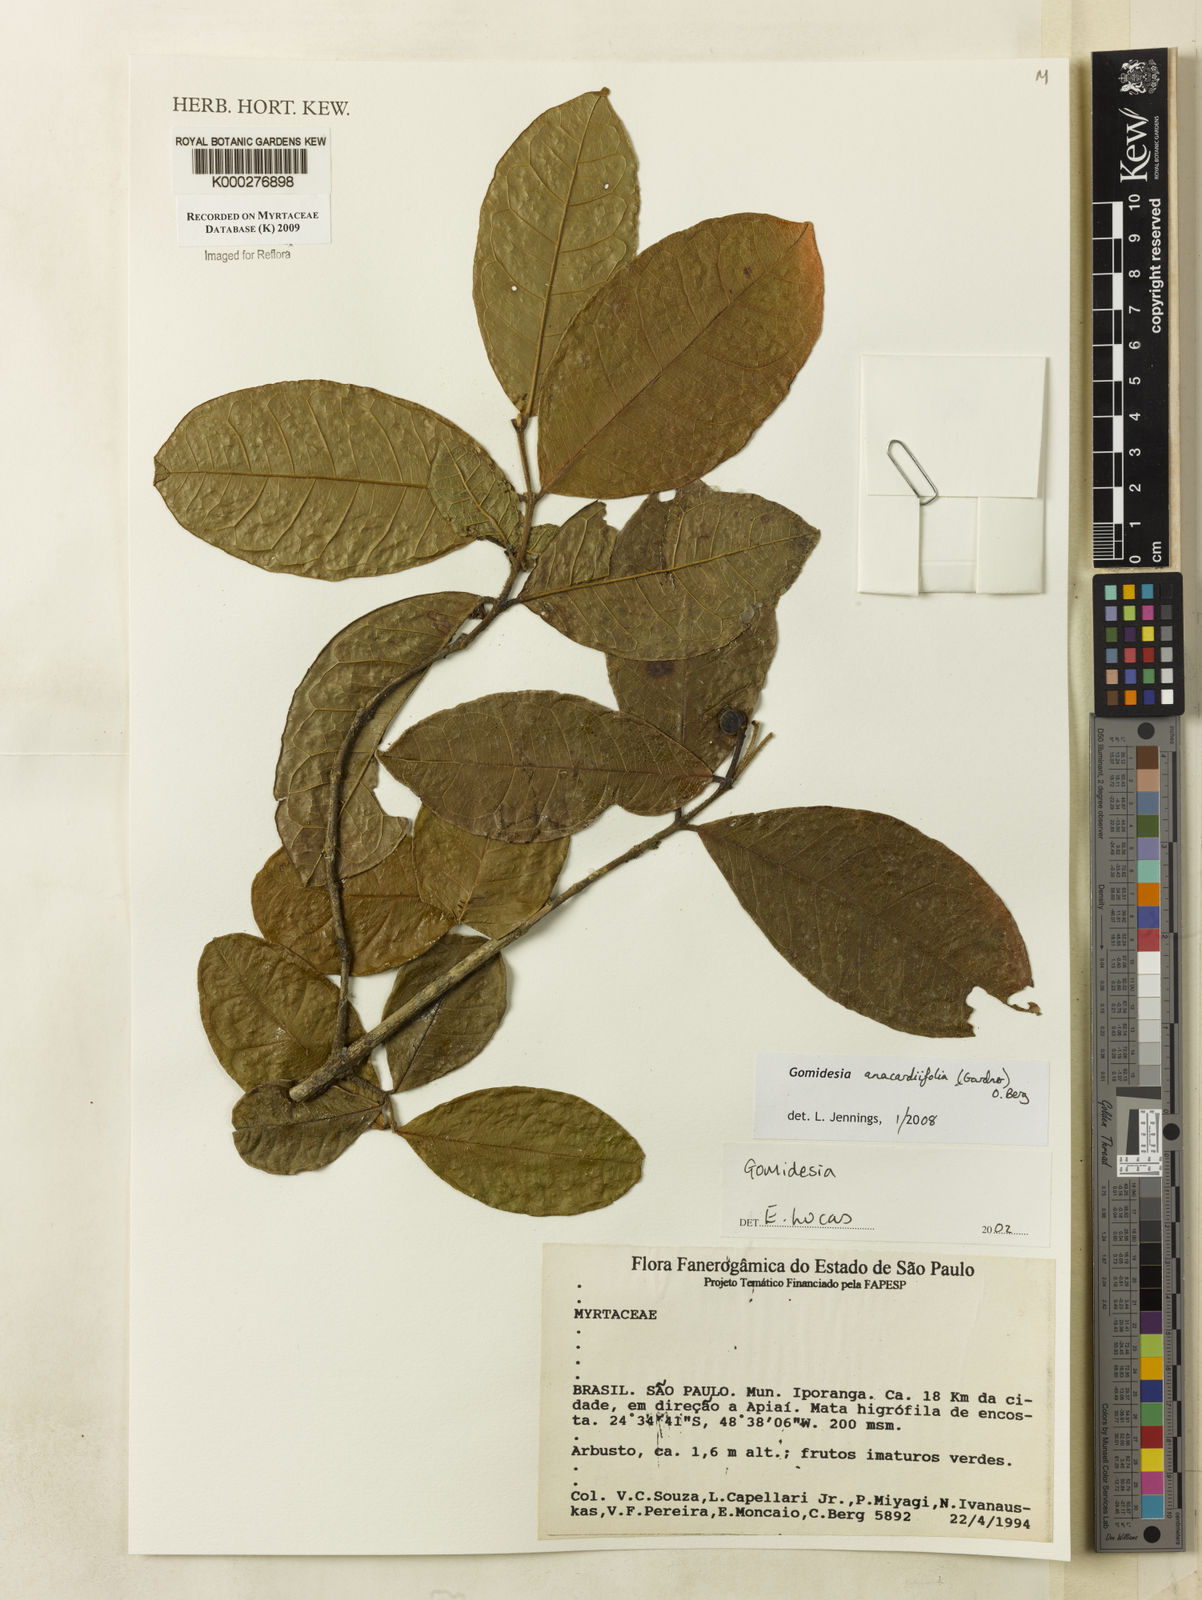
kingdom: Plantae
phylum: Tracheophyta
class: Magnoliopsida
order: Myrtales
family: Myrtaceae
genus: Myrcia
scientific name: Myrcia anacardiifolia
